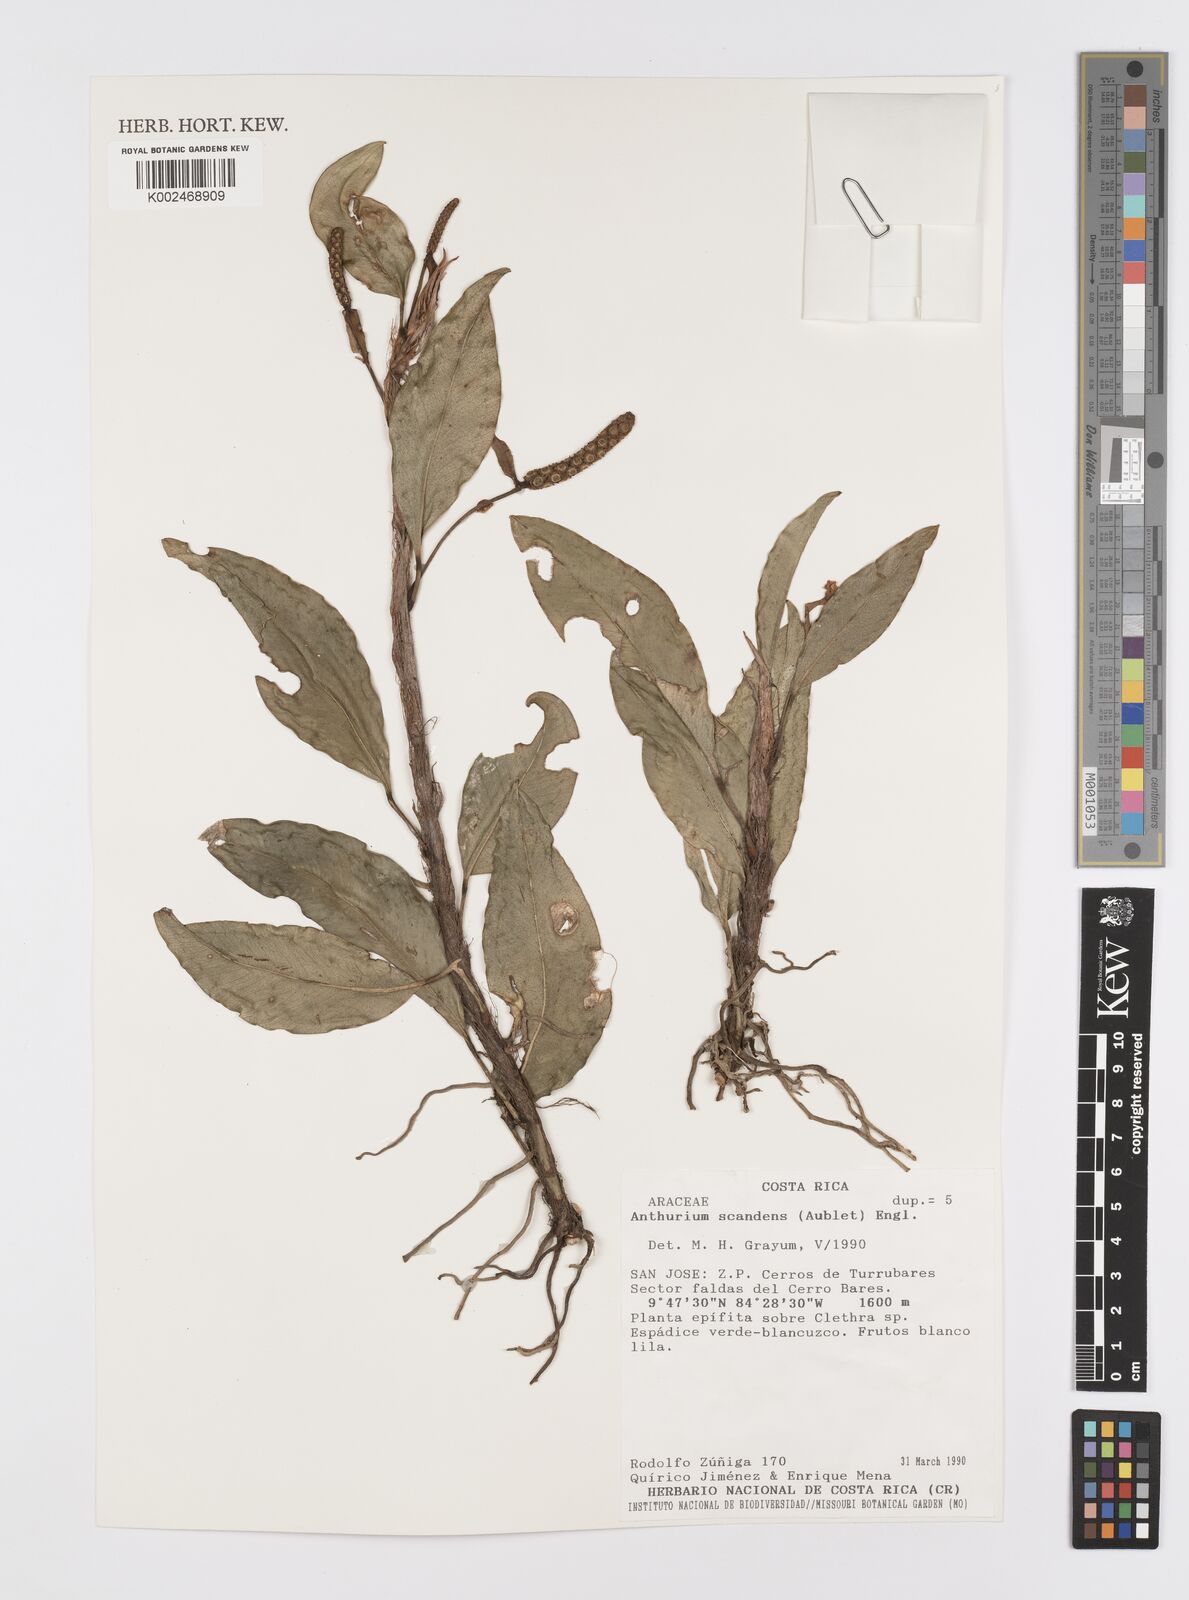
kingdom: Plantae
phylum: Tracheophyta
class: Liliopsida
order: Alismatales
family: Araceae
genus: Anthurium
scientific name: Anthurium scandens
